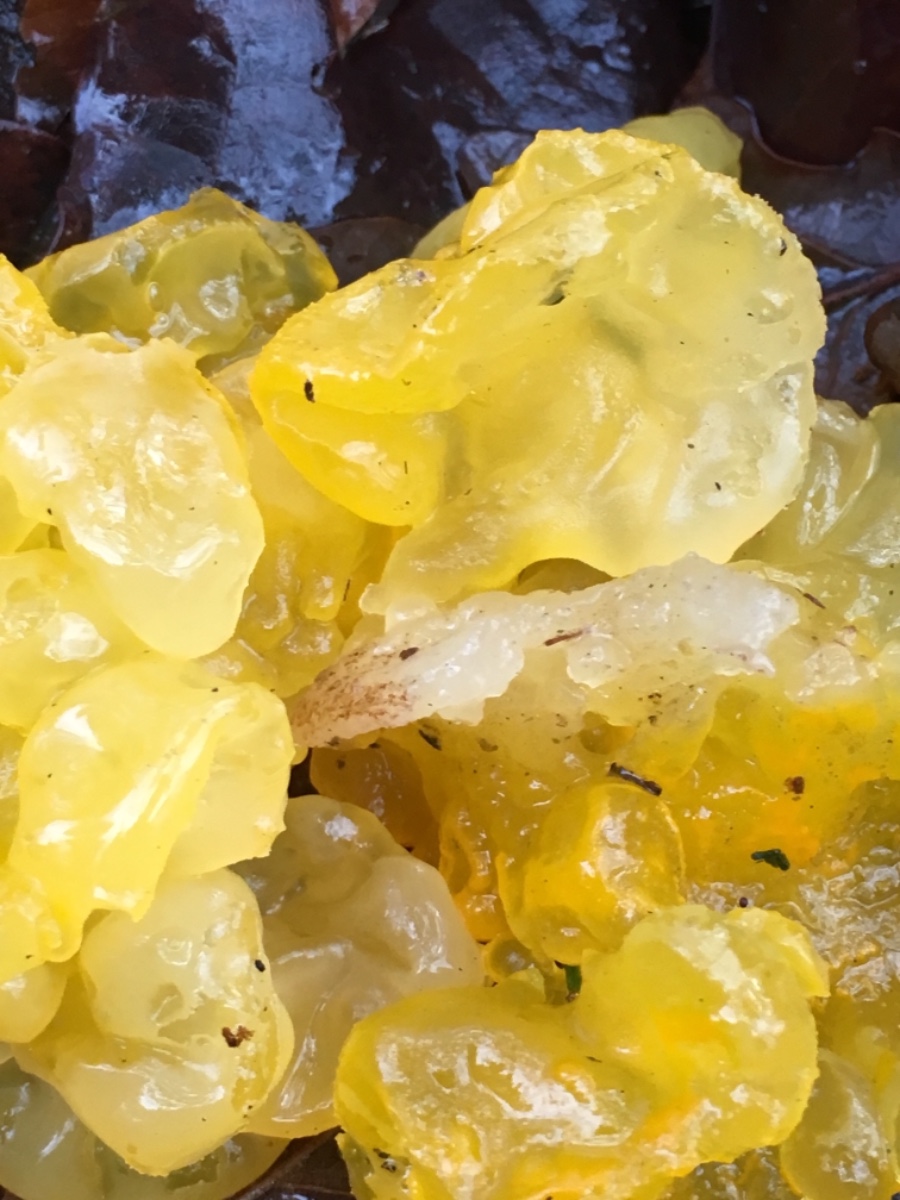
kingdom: Fungi
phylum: Basidiomycota
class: Tremellomycetes
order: Tremellales
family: Tremellaceae
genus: Tremella
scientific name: Tremella mesenterica
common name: gul bævresvamp
